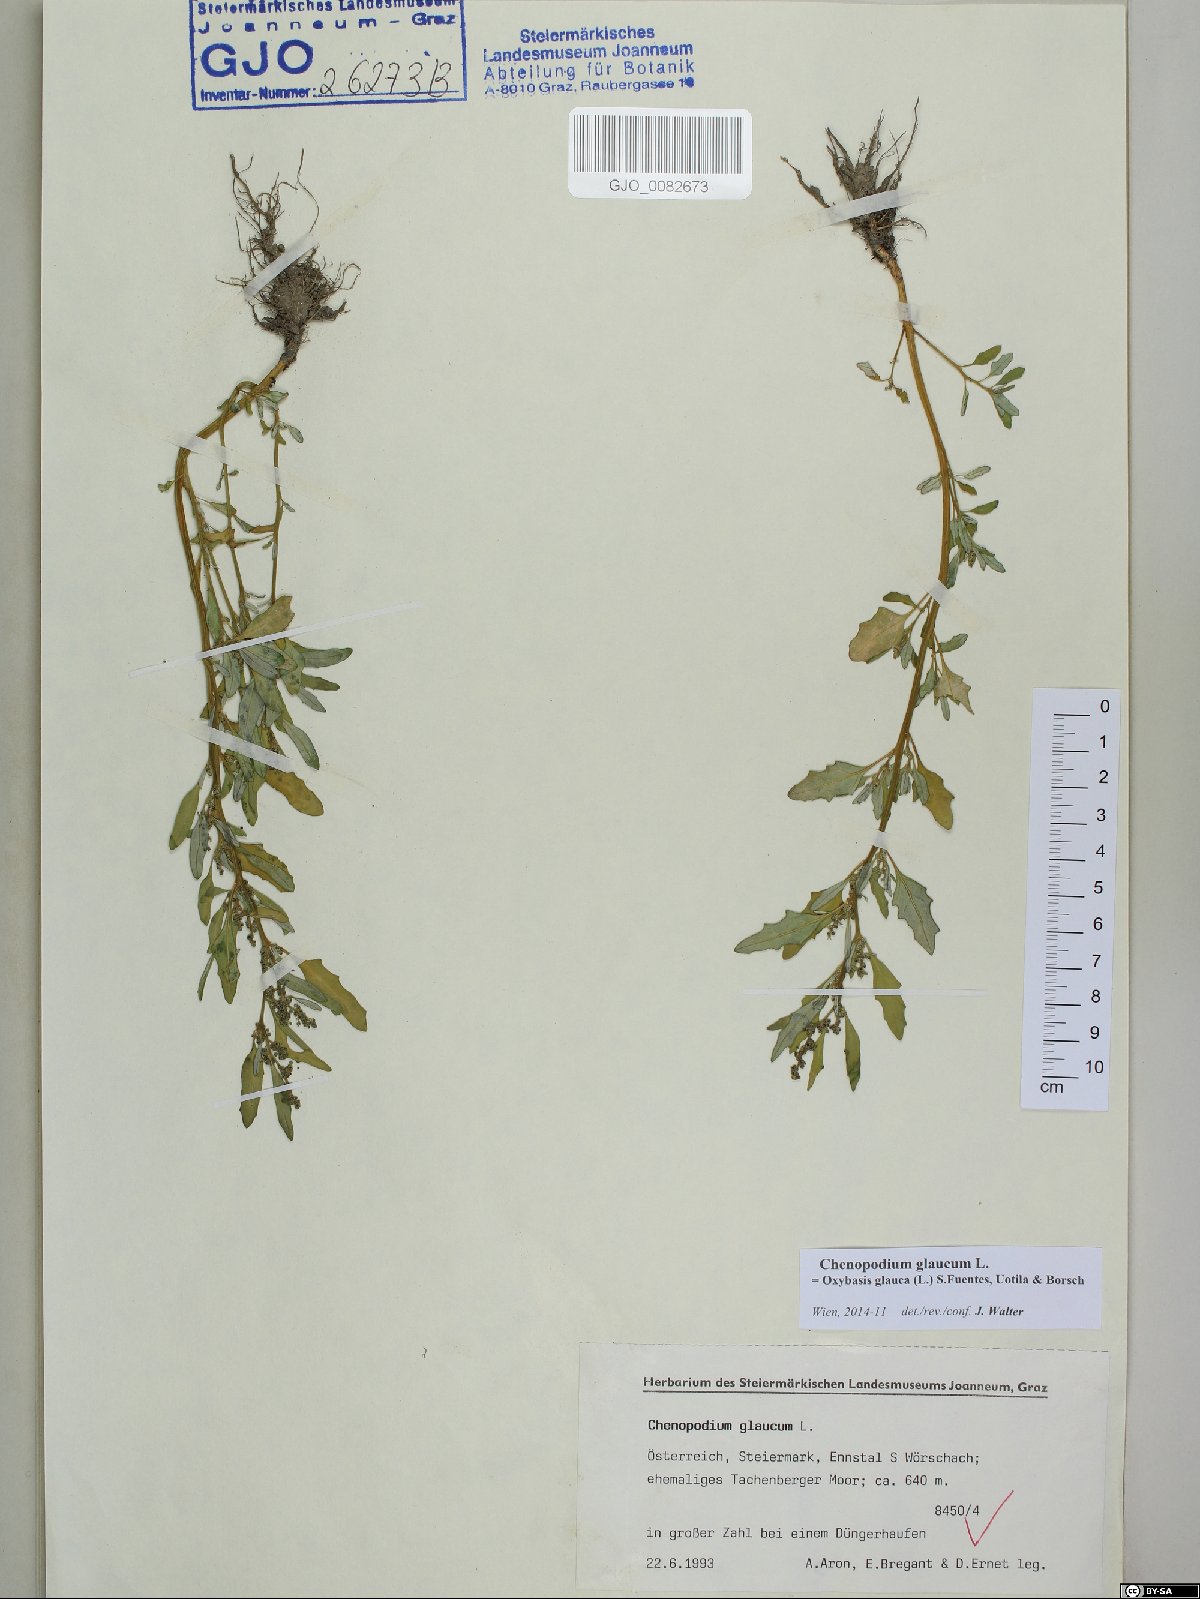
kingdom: Plantae
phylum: Tracheophyta
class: Magnoliopsida
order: Caryophyllales
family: Amaranthaceae
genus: Oxybasis
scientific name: Oxybasis glauca
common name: Glaucous goosefoot
